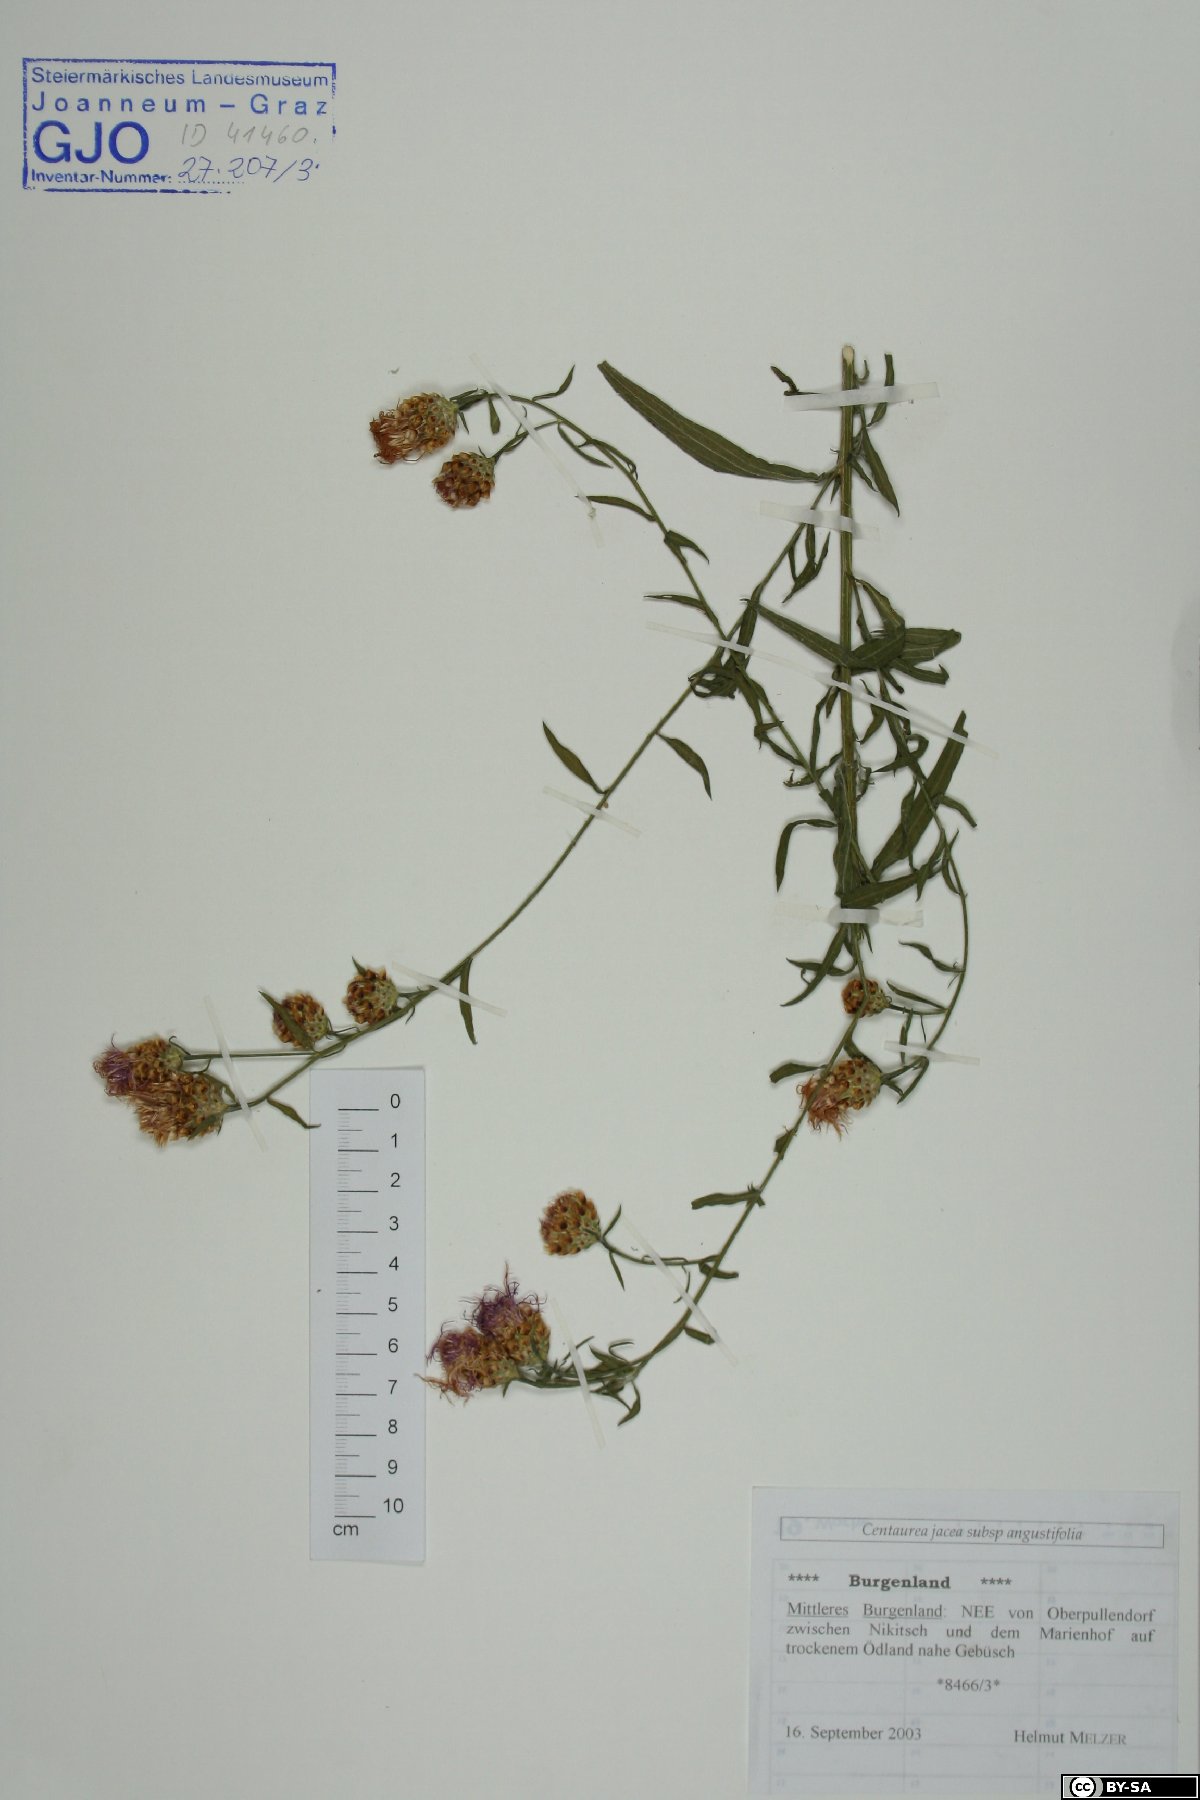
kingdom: Plantae
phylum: Tracheophyta
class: Magnoliopsida
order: Asterales
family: Asteraceae
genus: Centaurea
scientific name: Centaurea pannonica
